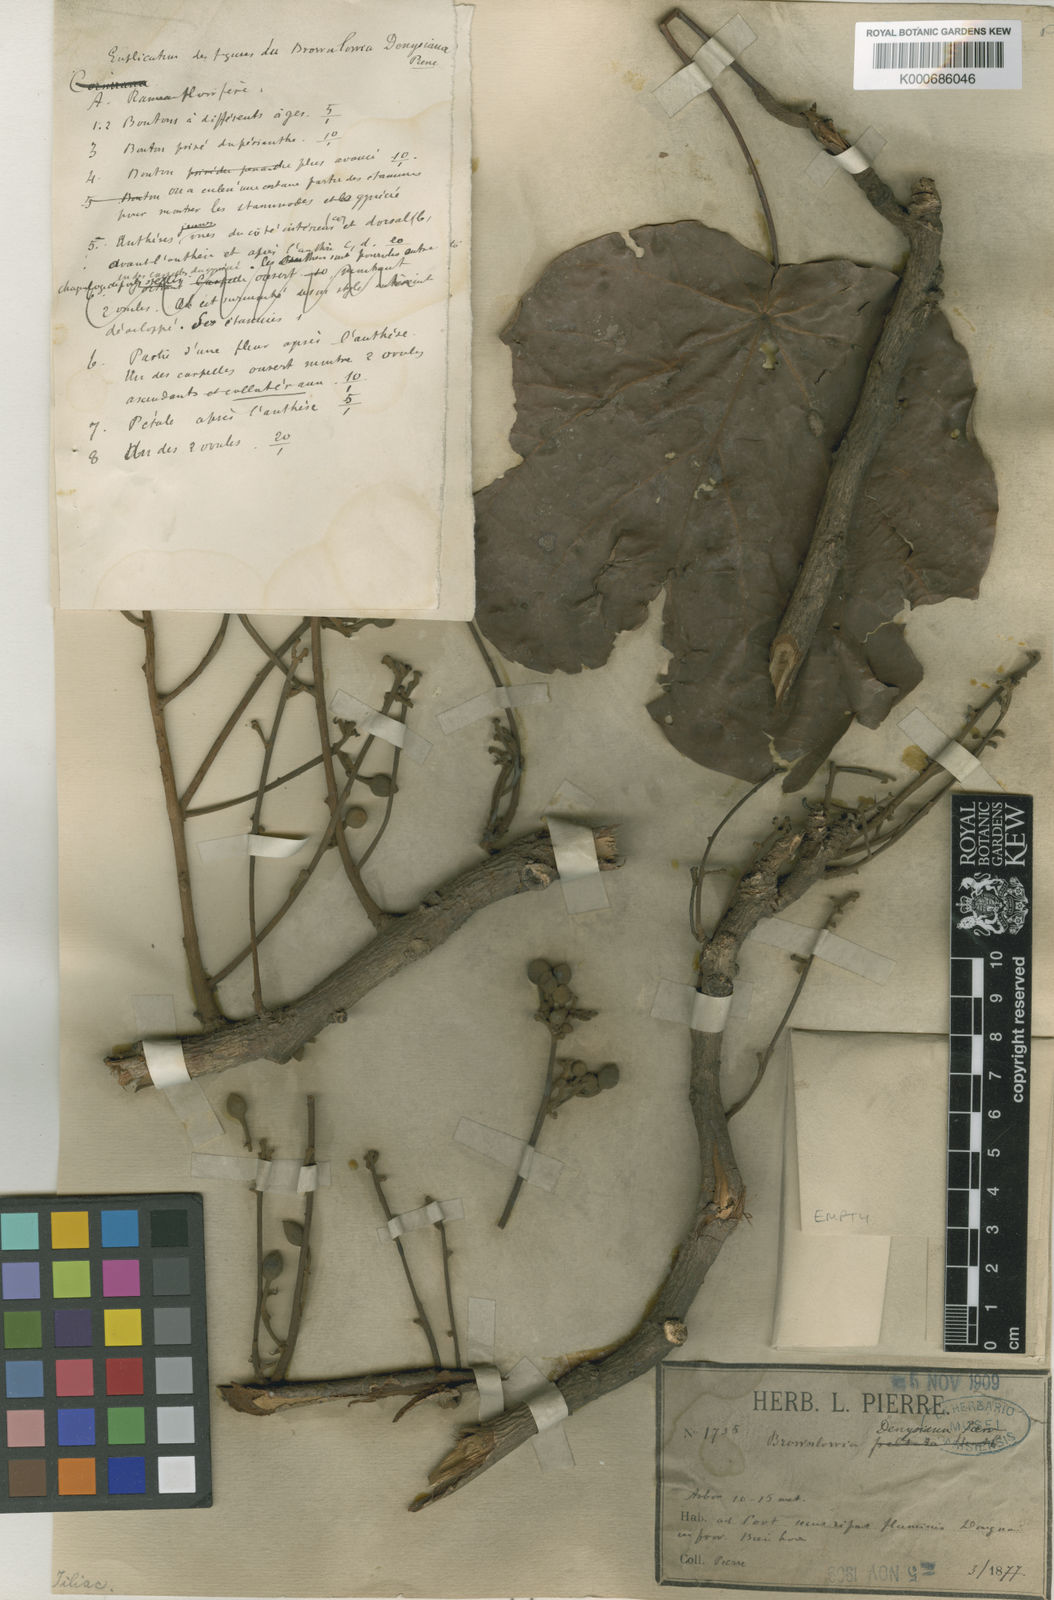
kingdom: Plantae
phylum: Tracheophyta
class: Magnoliopsida
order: Malvales
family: Malvaceae
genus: Brownlowia
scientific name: Brownlowia peltata
